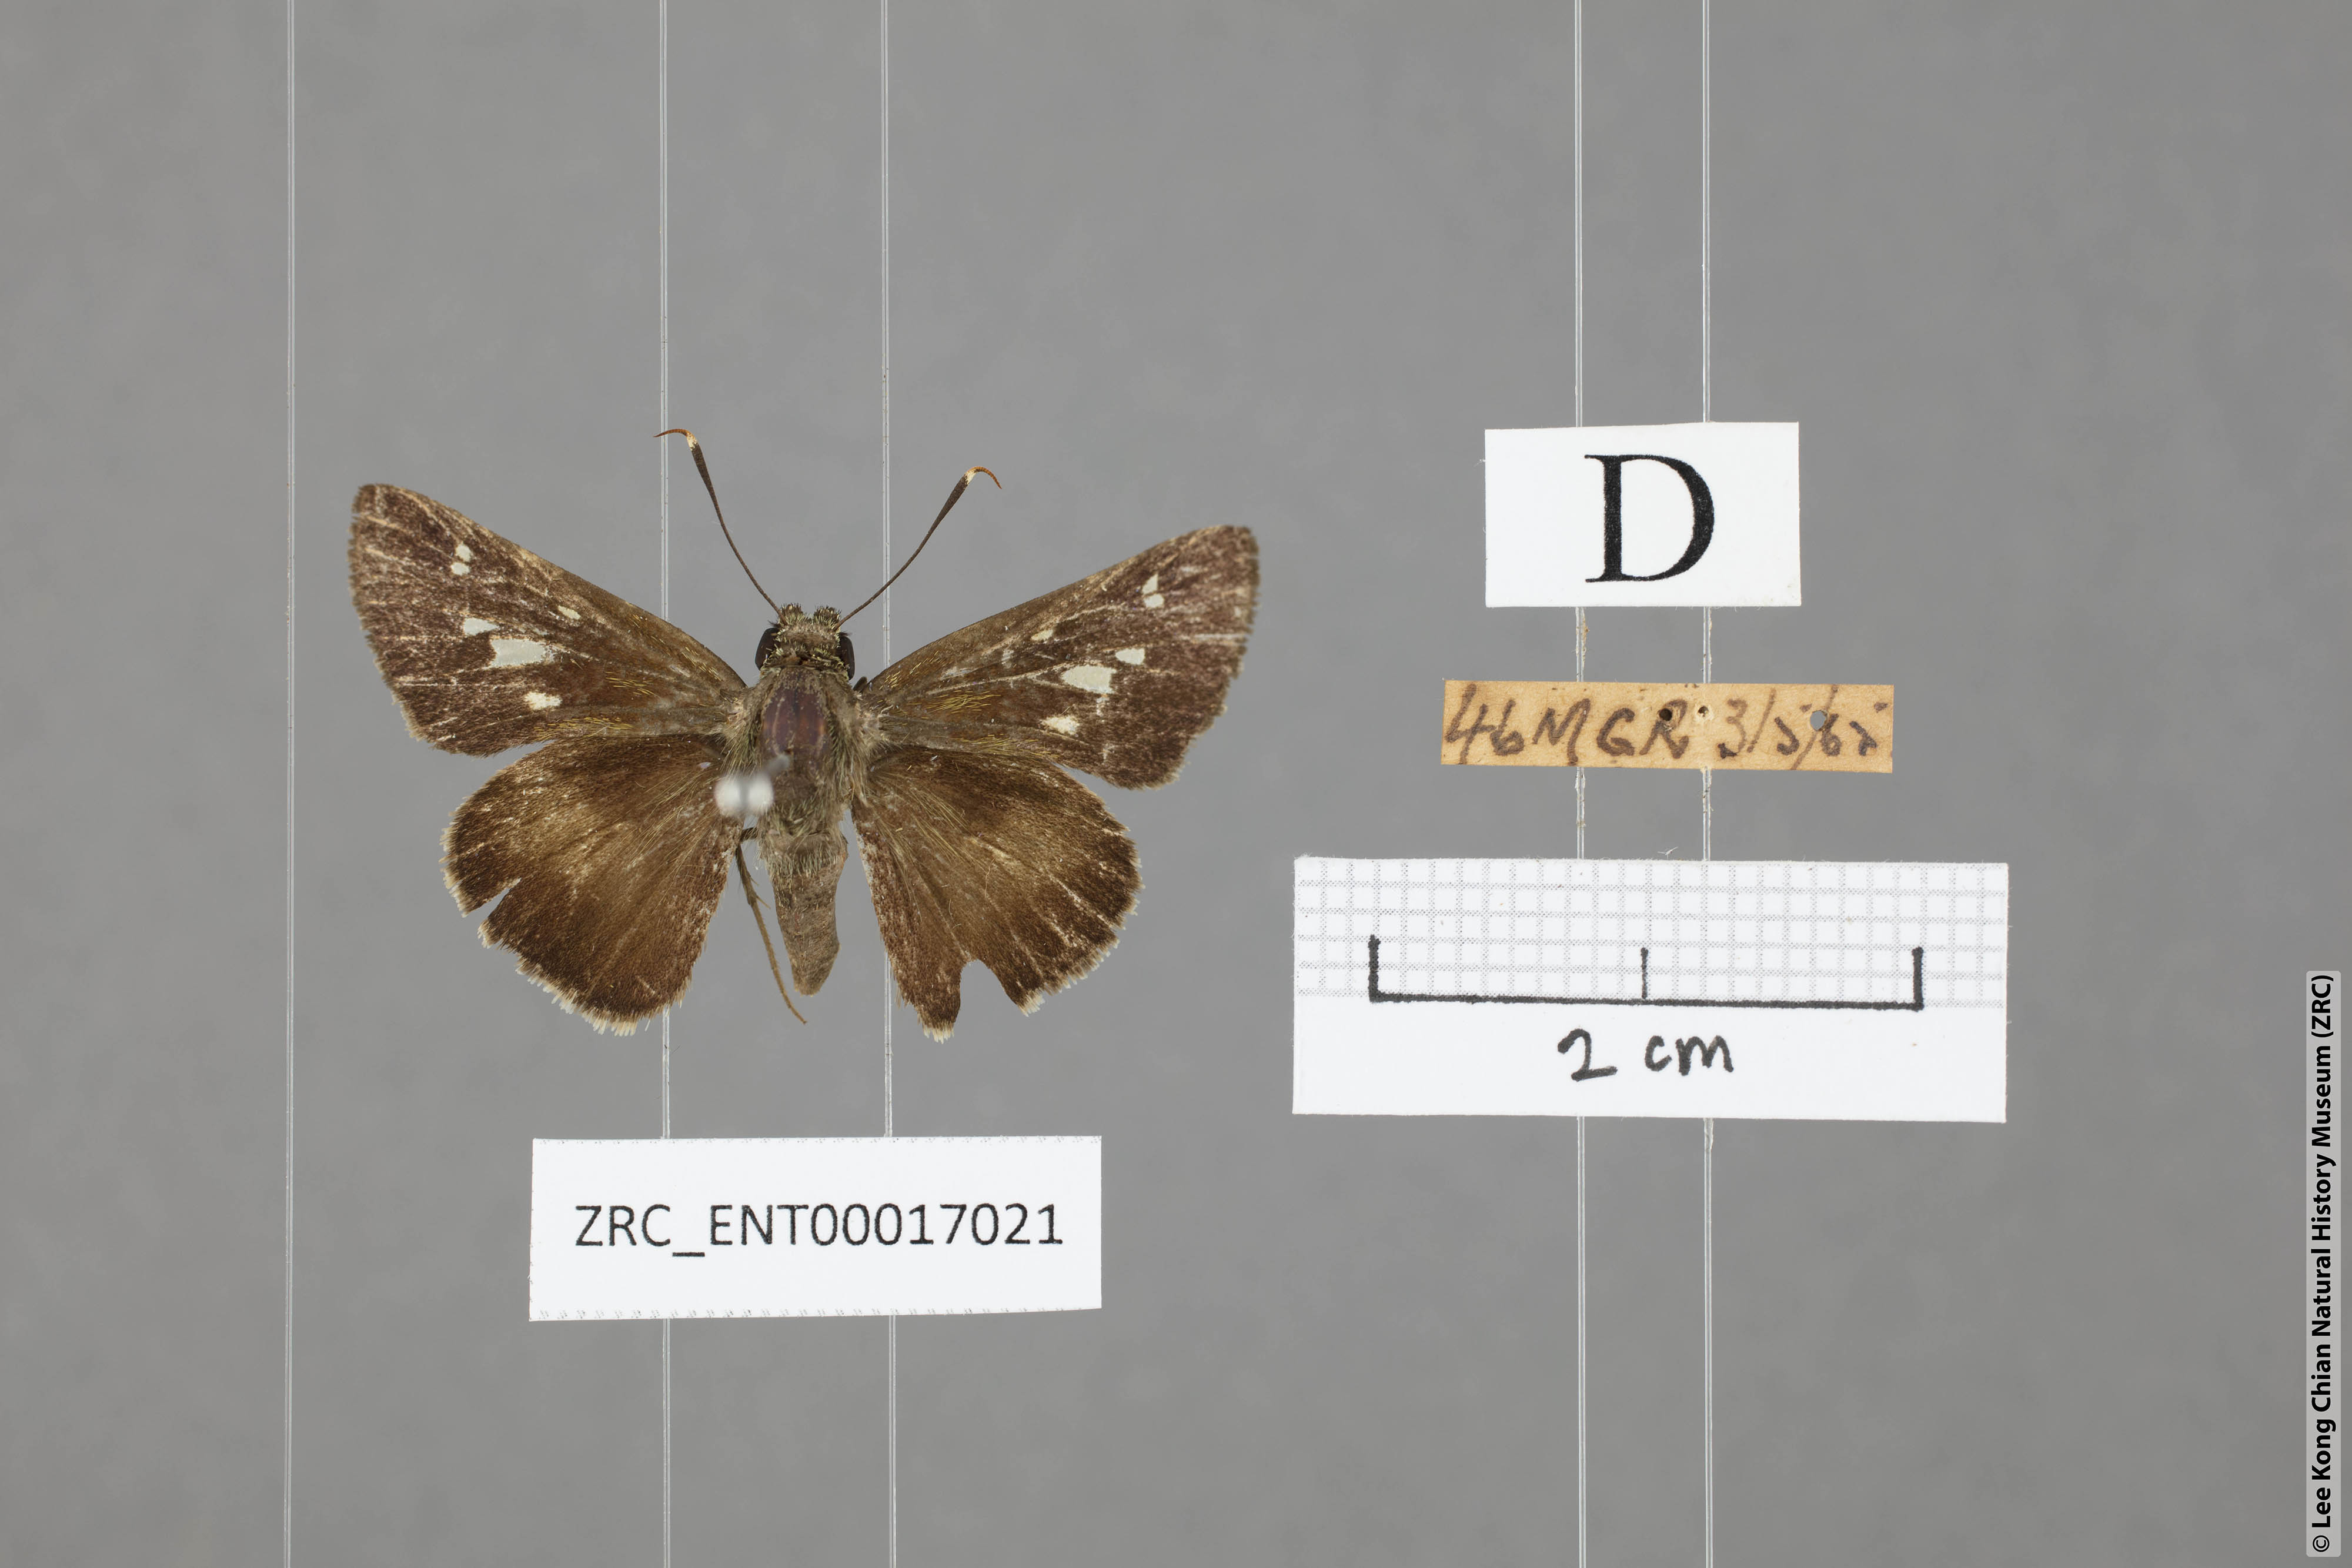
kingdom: Animalia
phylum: Arthropoda
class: Insecta
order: Lepidoptera
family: Hesperiidae
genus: Halpe
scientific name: Halpe
